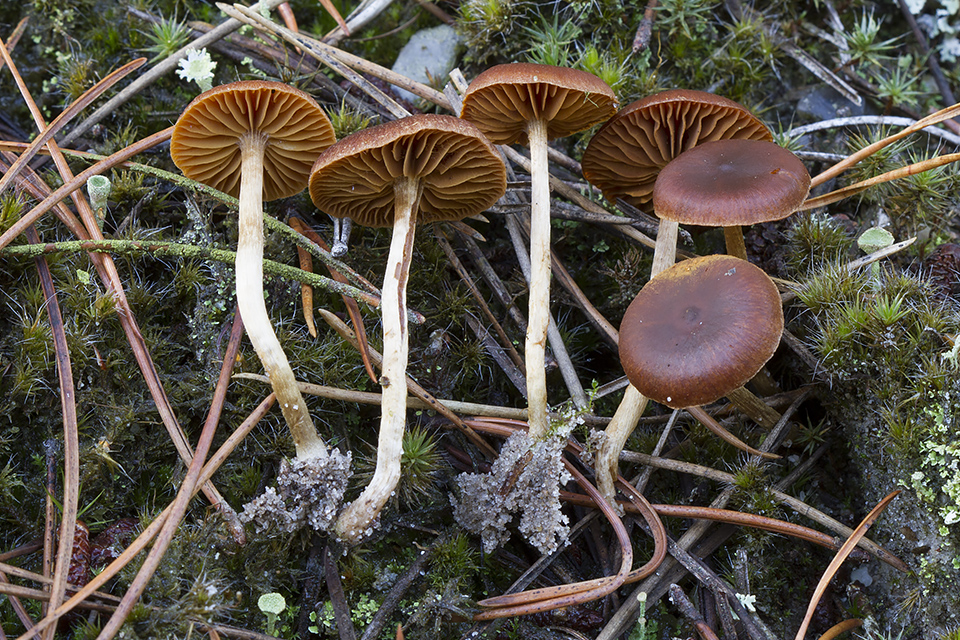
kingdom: Fungi
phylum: Basidiomycota
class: Agaricomycetes
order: Agaricales
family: Cortinariaceae
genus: Cortinarius
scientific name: Cortinarius laetus
